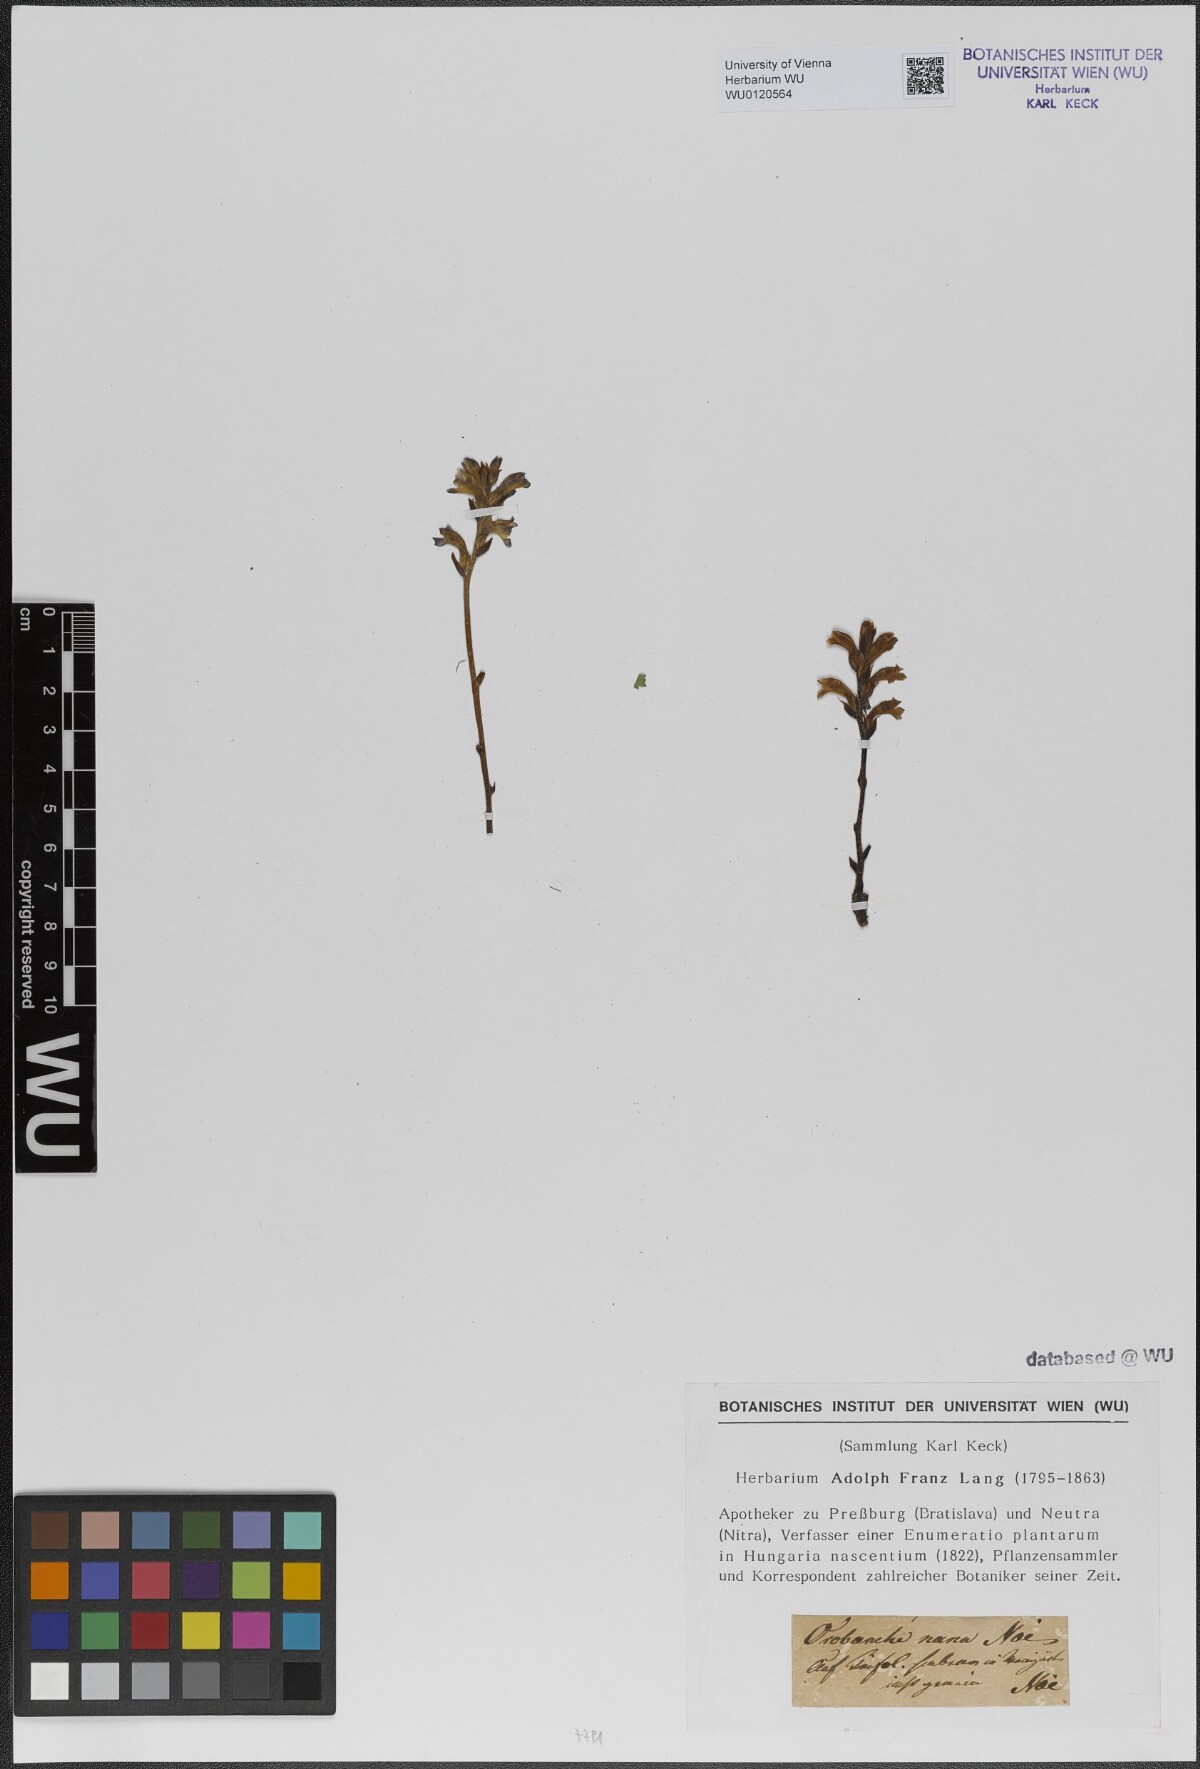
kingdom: Plantae
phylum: Tracheophyta
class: Magnoliopsida
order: Lamiales
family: Orobanchaceae
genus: Phelipanche
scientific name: Phelipanche mutelii
